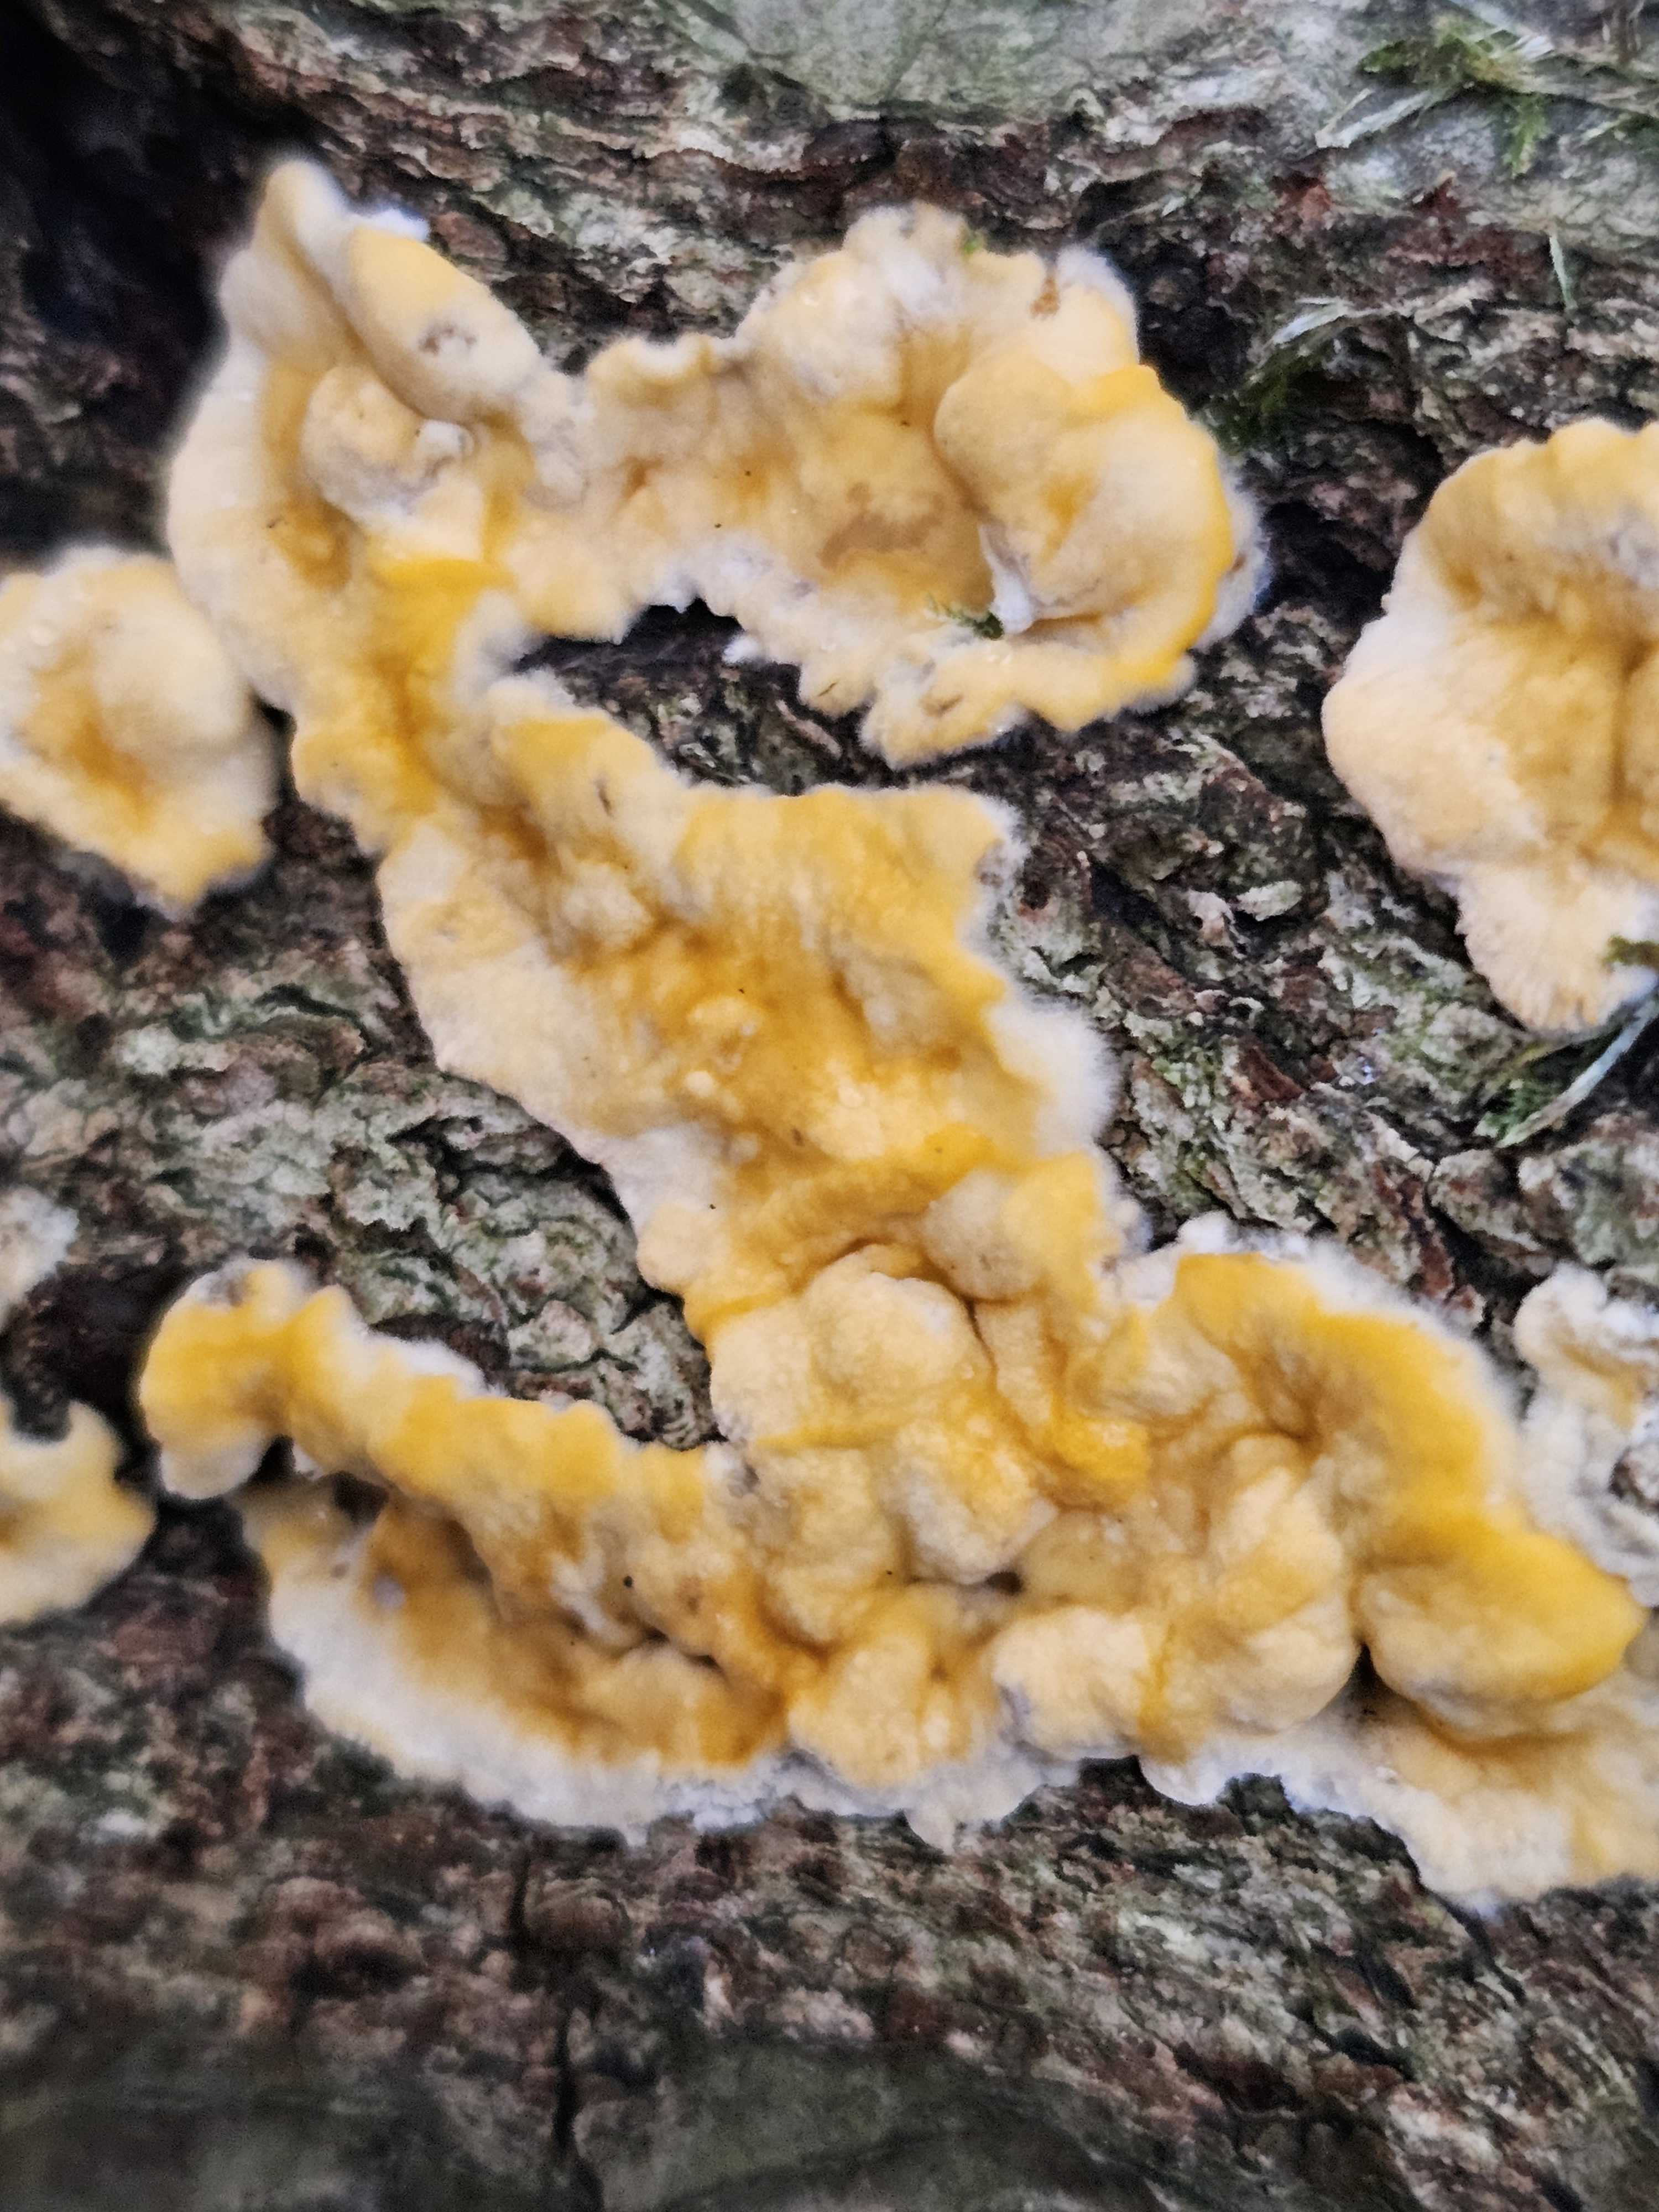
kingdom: Fungi
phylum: Basidiomycota
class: Agaricomycetes
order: Russulales
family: Stereaceae
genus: Stereum
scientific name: Stereum hirsutum
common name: håret lædersvamp
